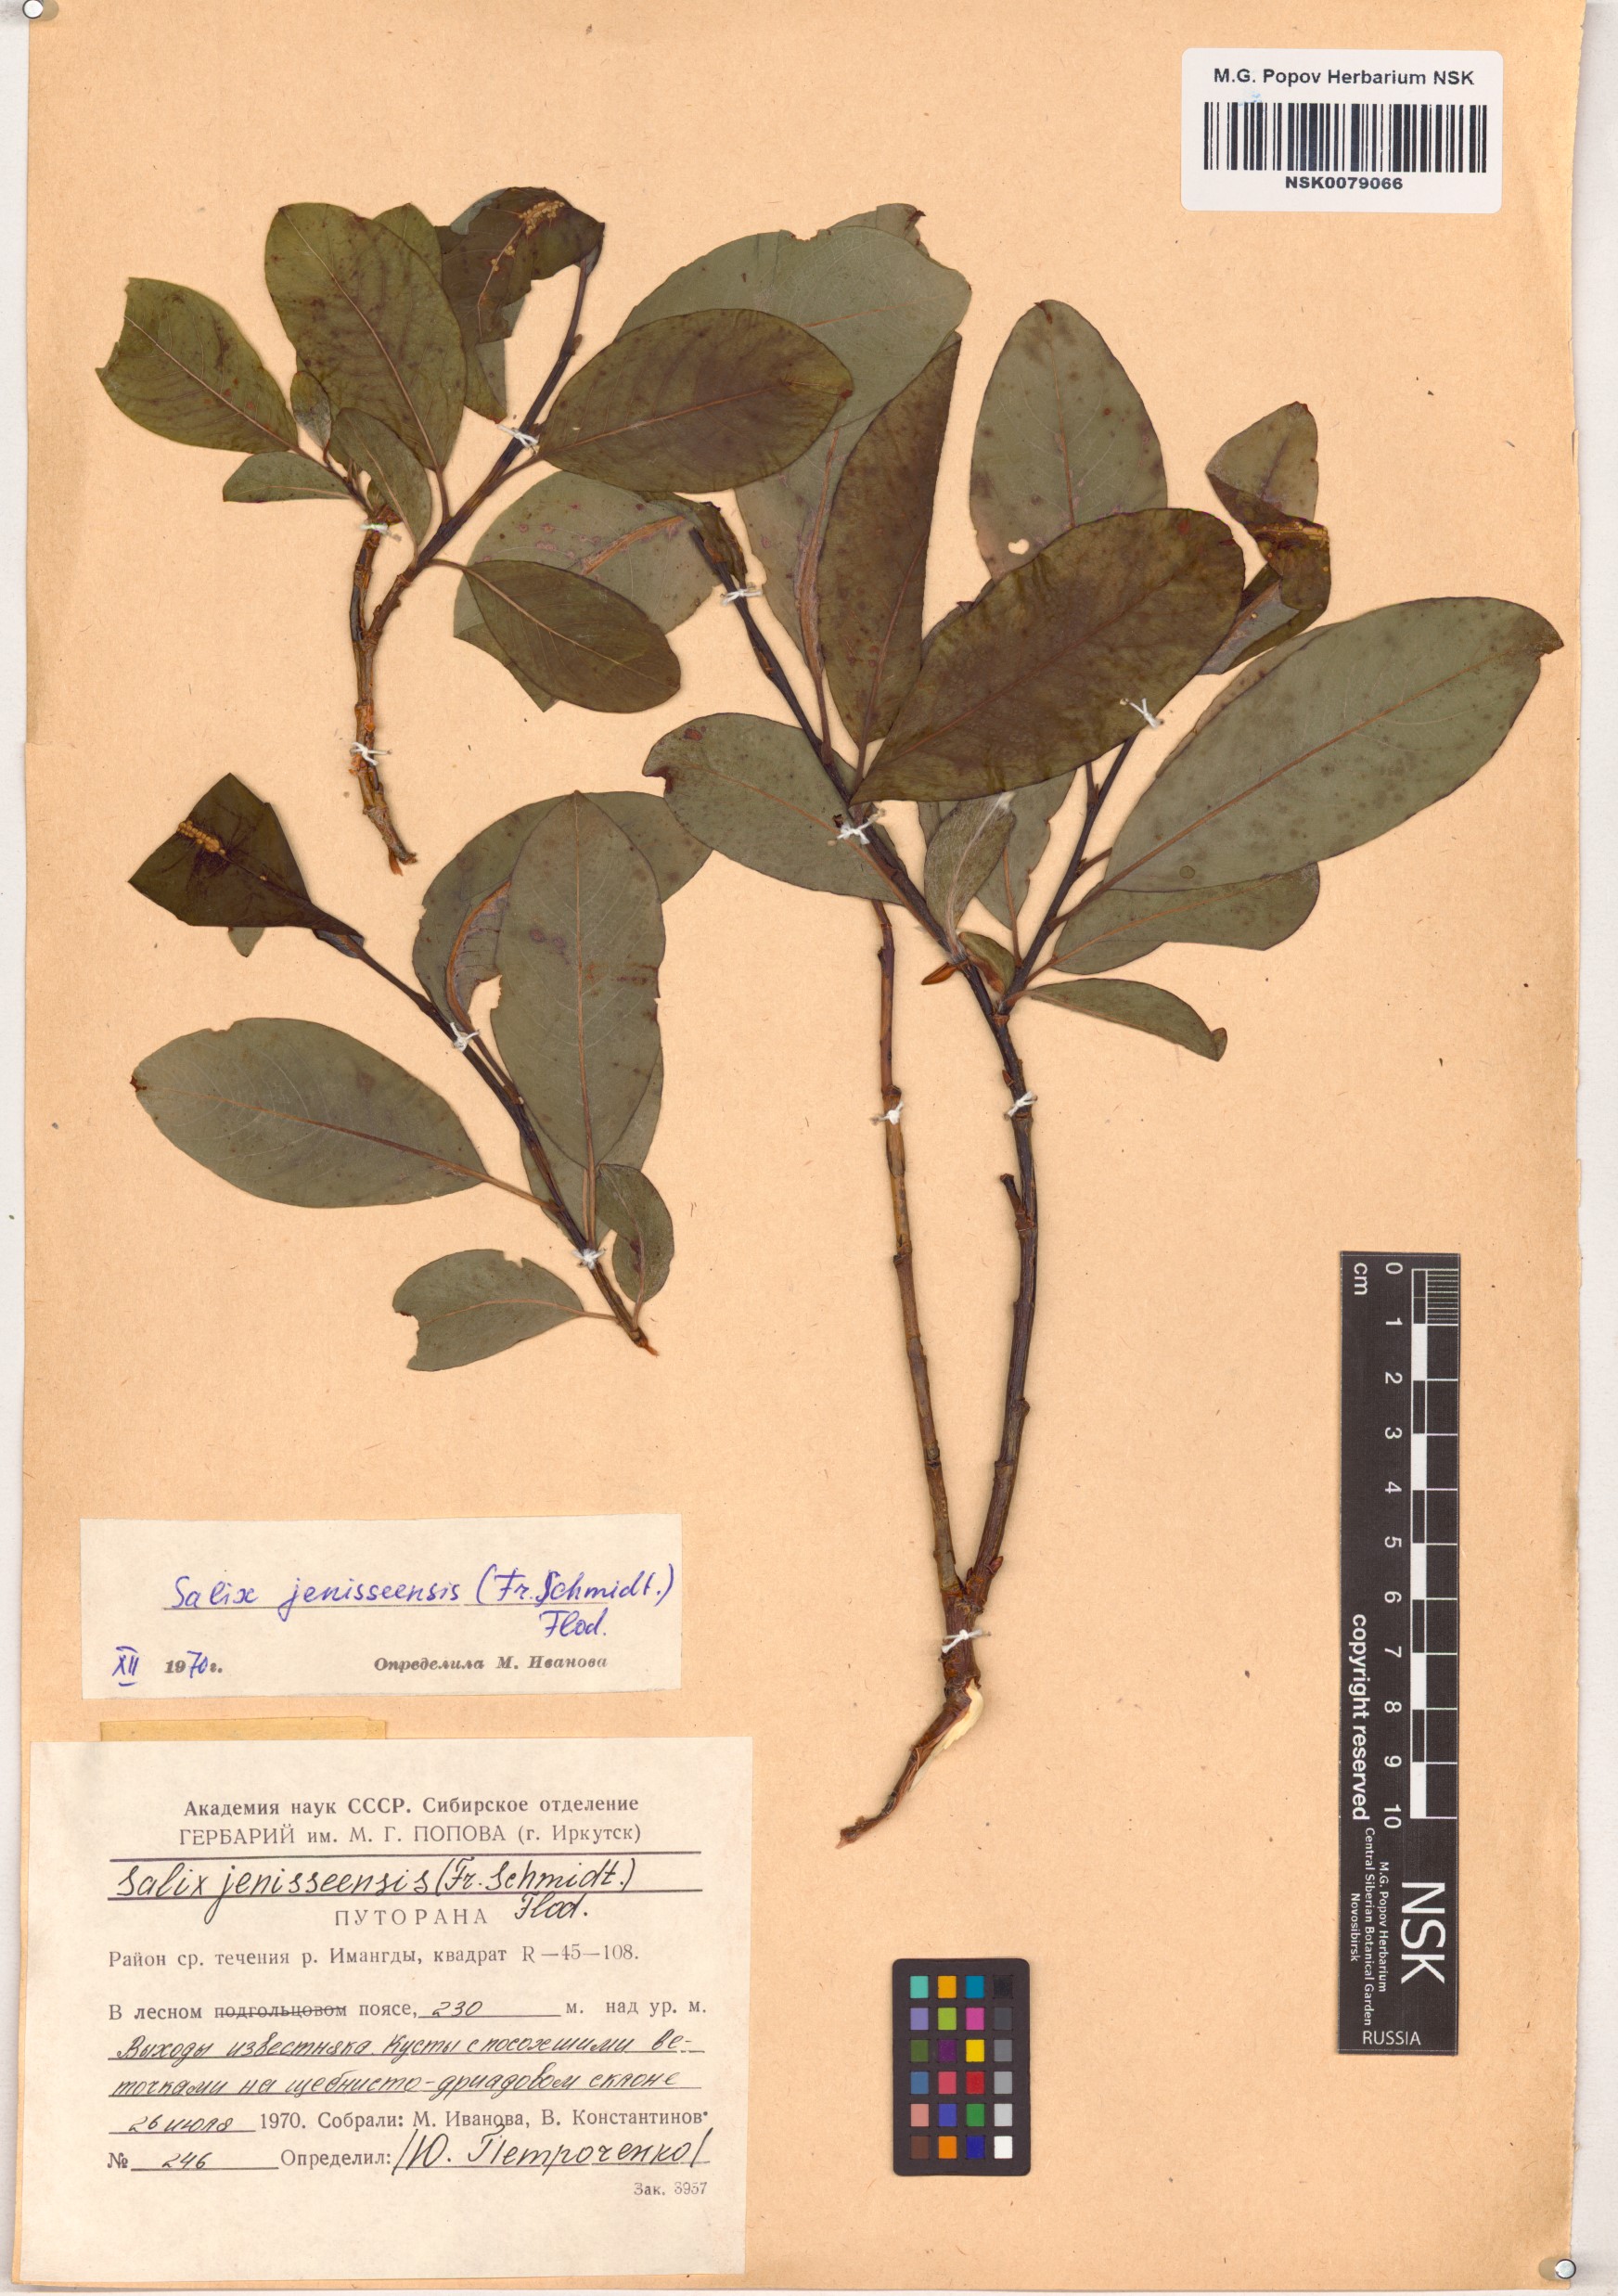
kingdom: Plantae
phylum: Tracheophyta
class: Magnoliopsida
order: Malpighiales
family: Salicaceae
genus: Salix
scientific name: Salix jenisseensis
